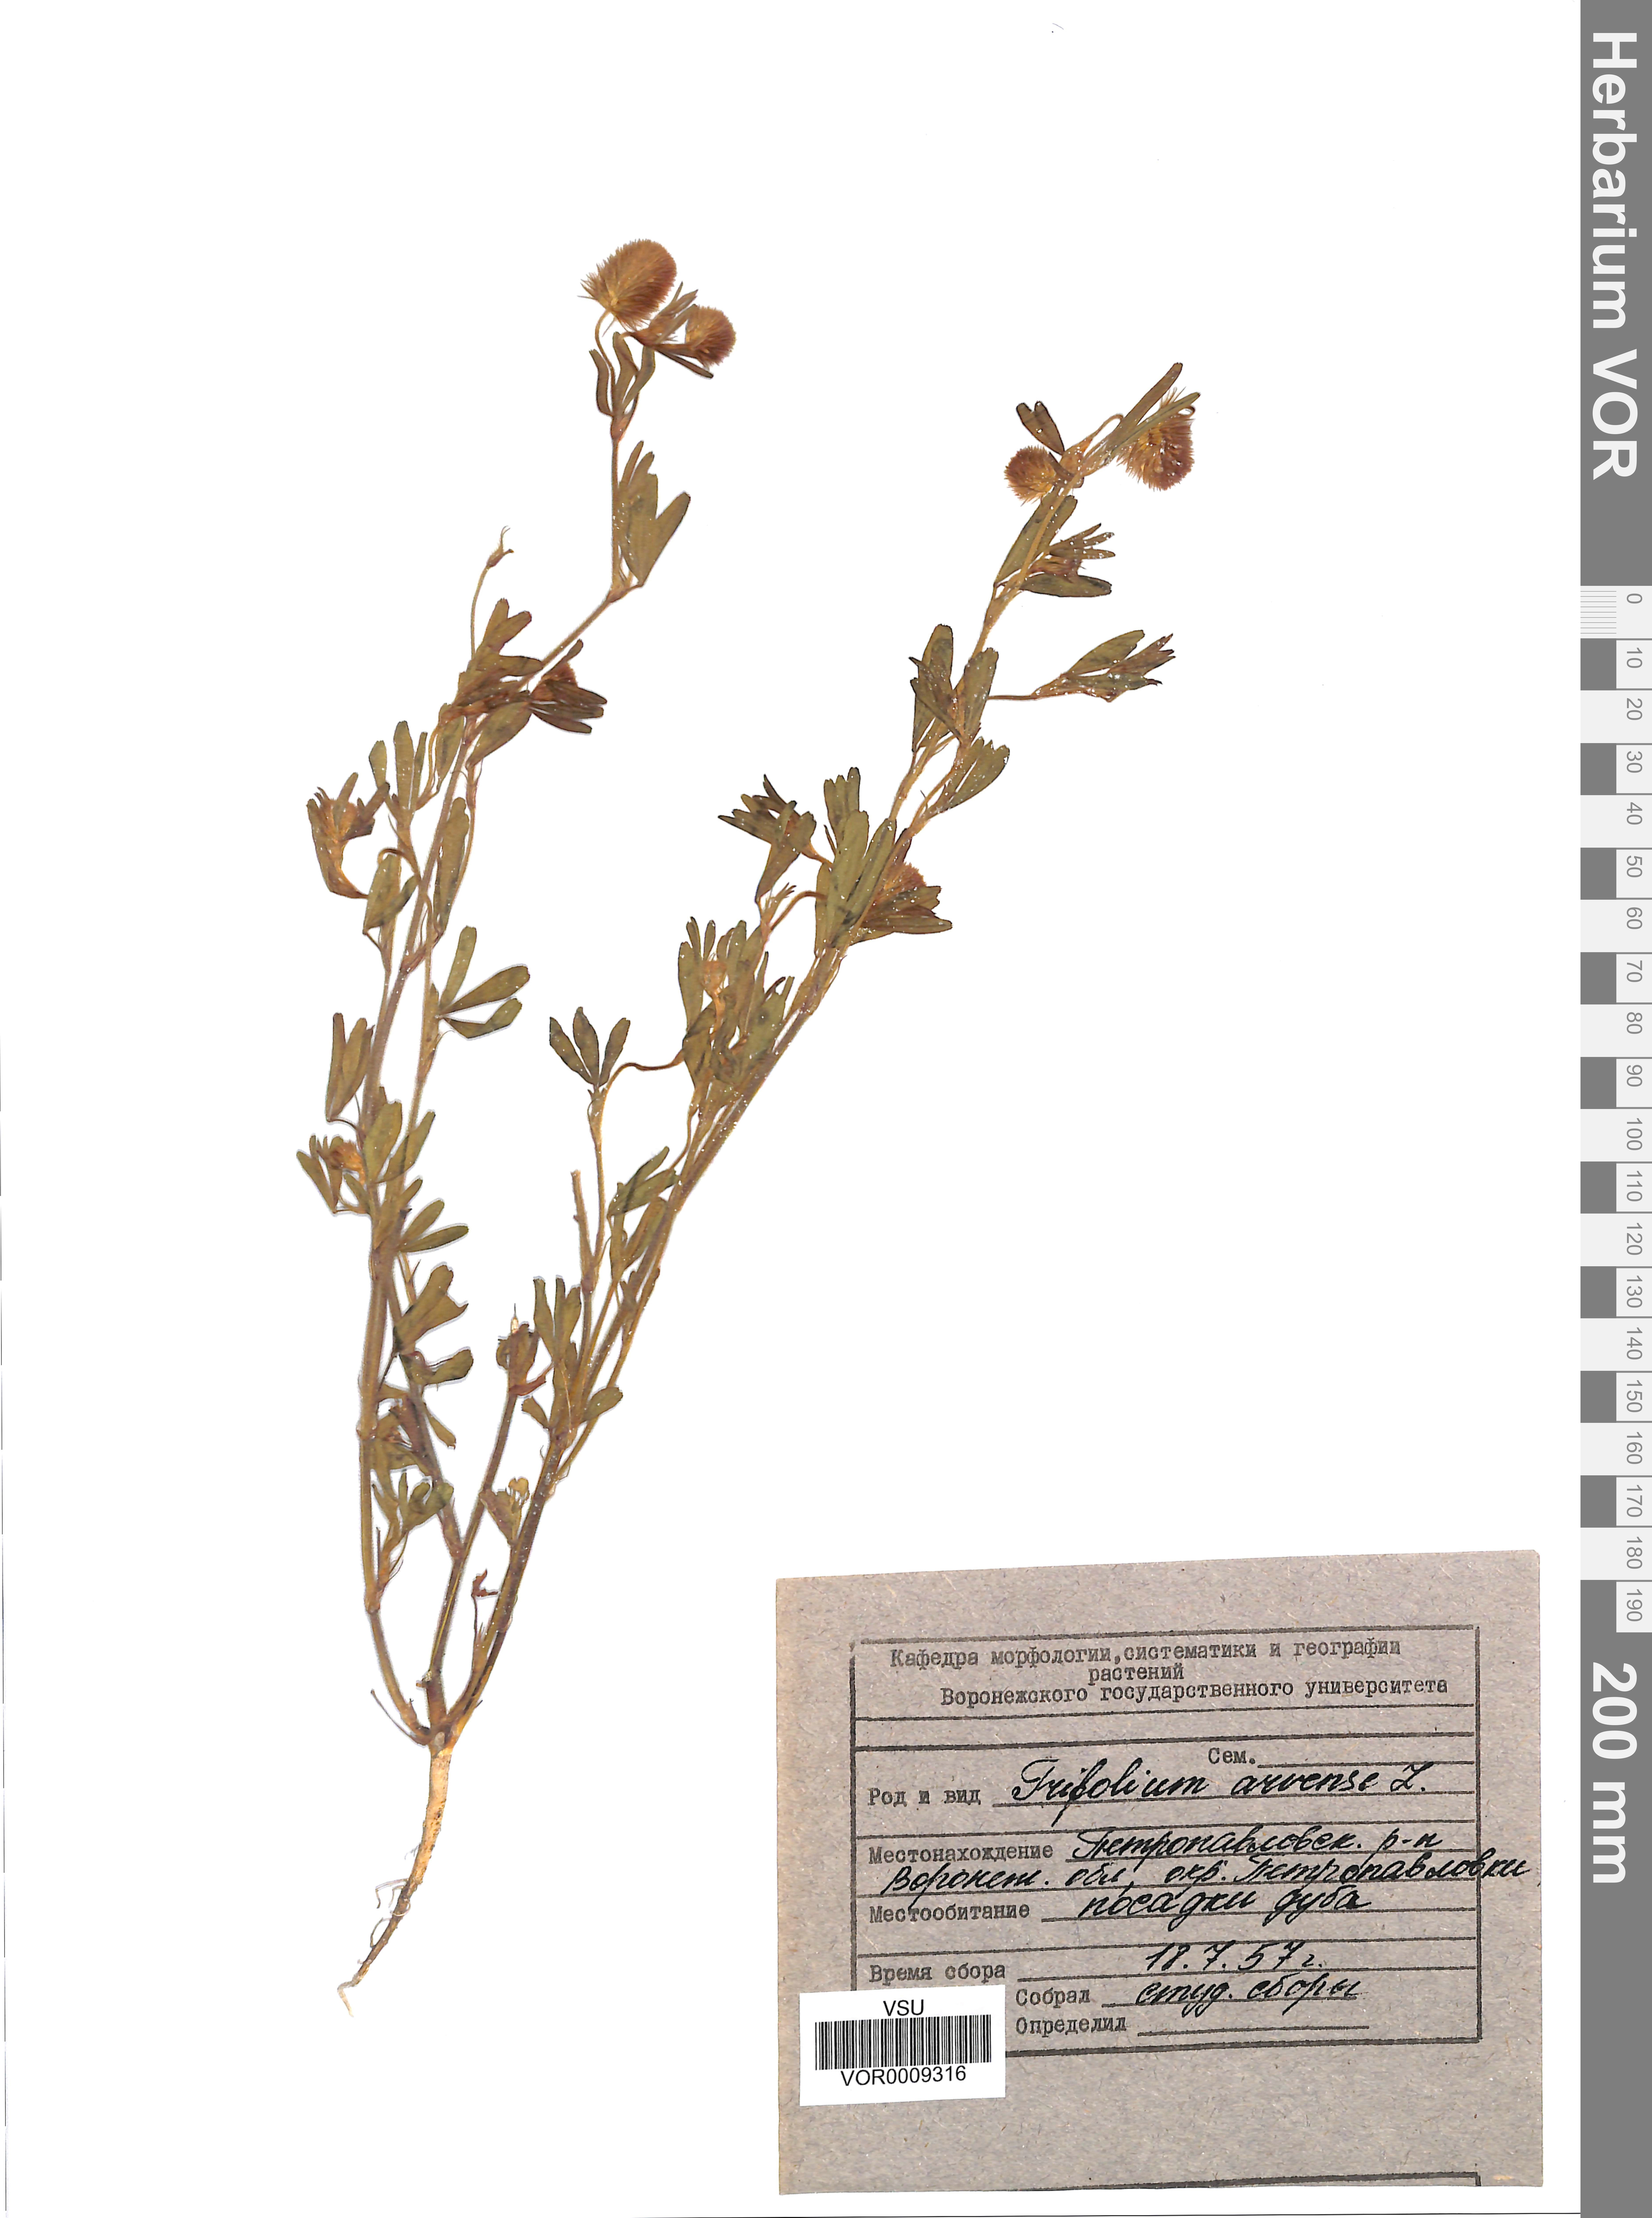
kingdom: Plantae
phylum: Tracheophyta
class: Magnoliopsida
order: Fabales
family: Fabaceae
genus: Trifolium
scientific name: Trifolium arvense
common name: Hare's-foot clover
